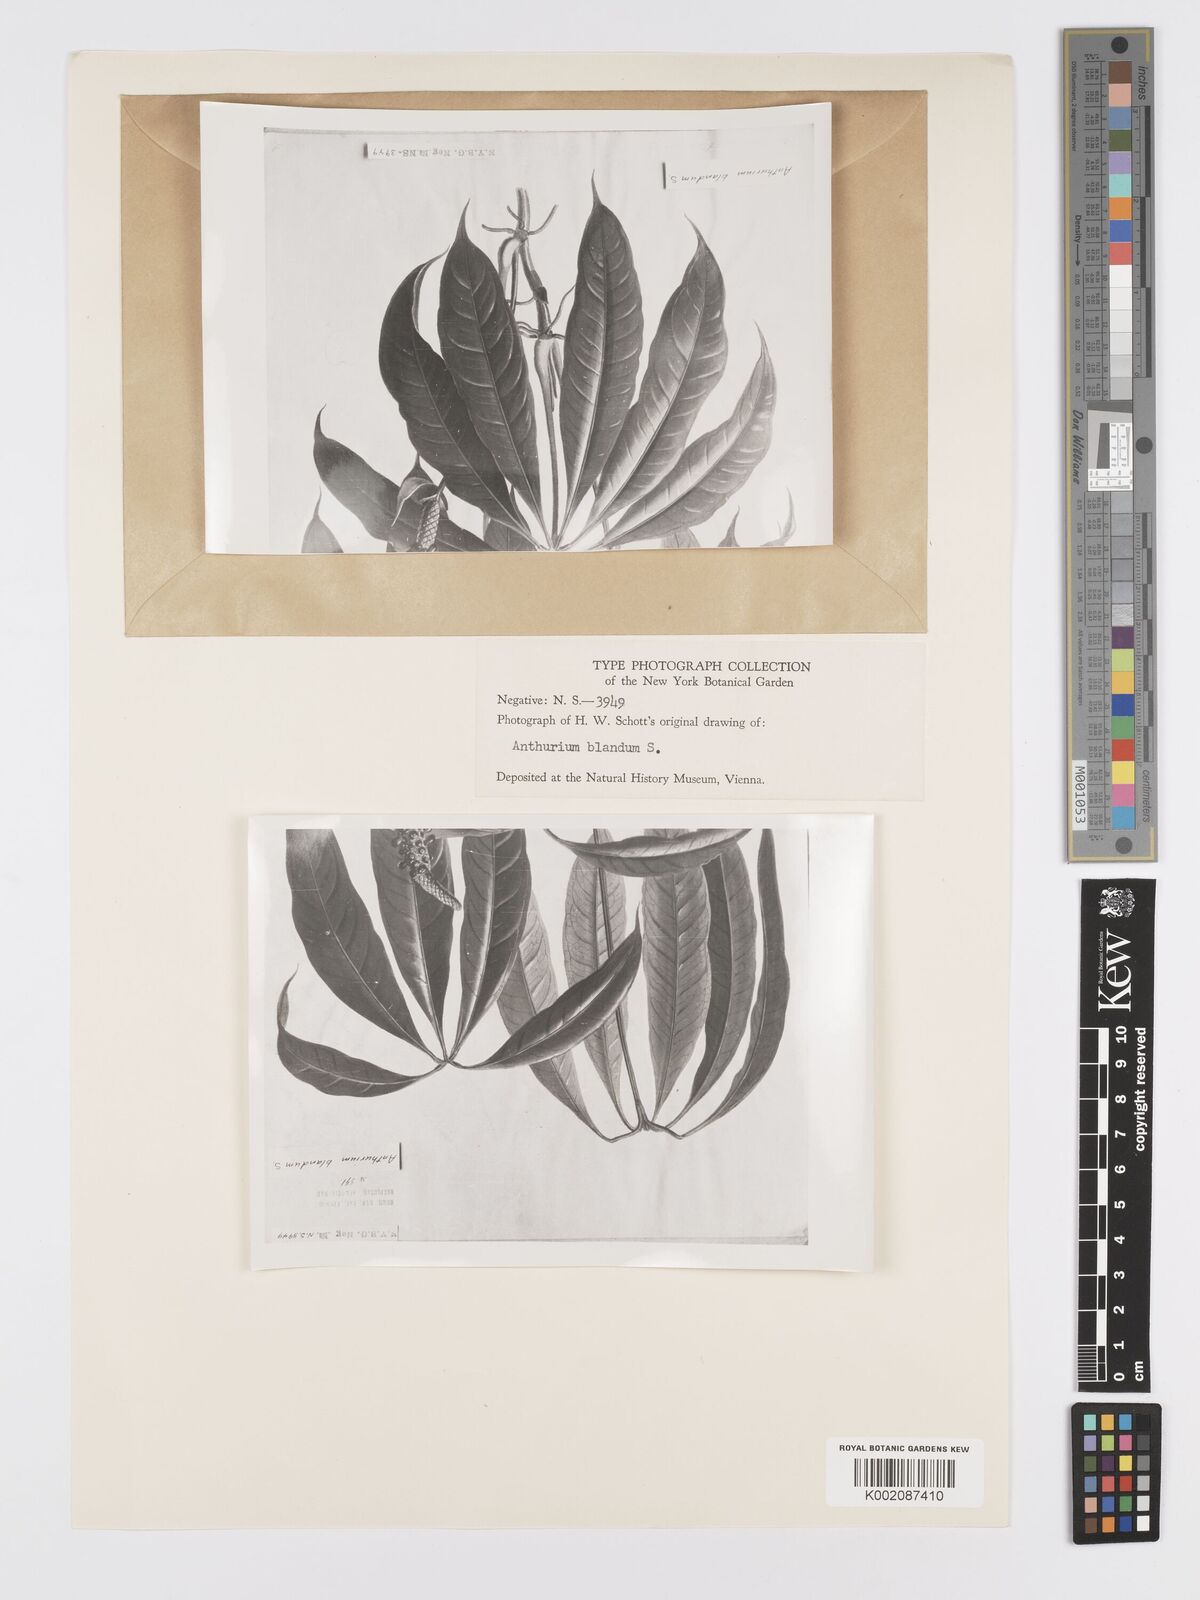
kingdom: Plantae
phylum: Tracheophyta
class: Liliopsida
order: Alismatales
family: Araceae
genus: Anthurium
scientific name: Anthurium
